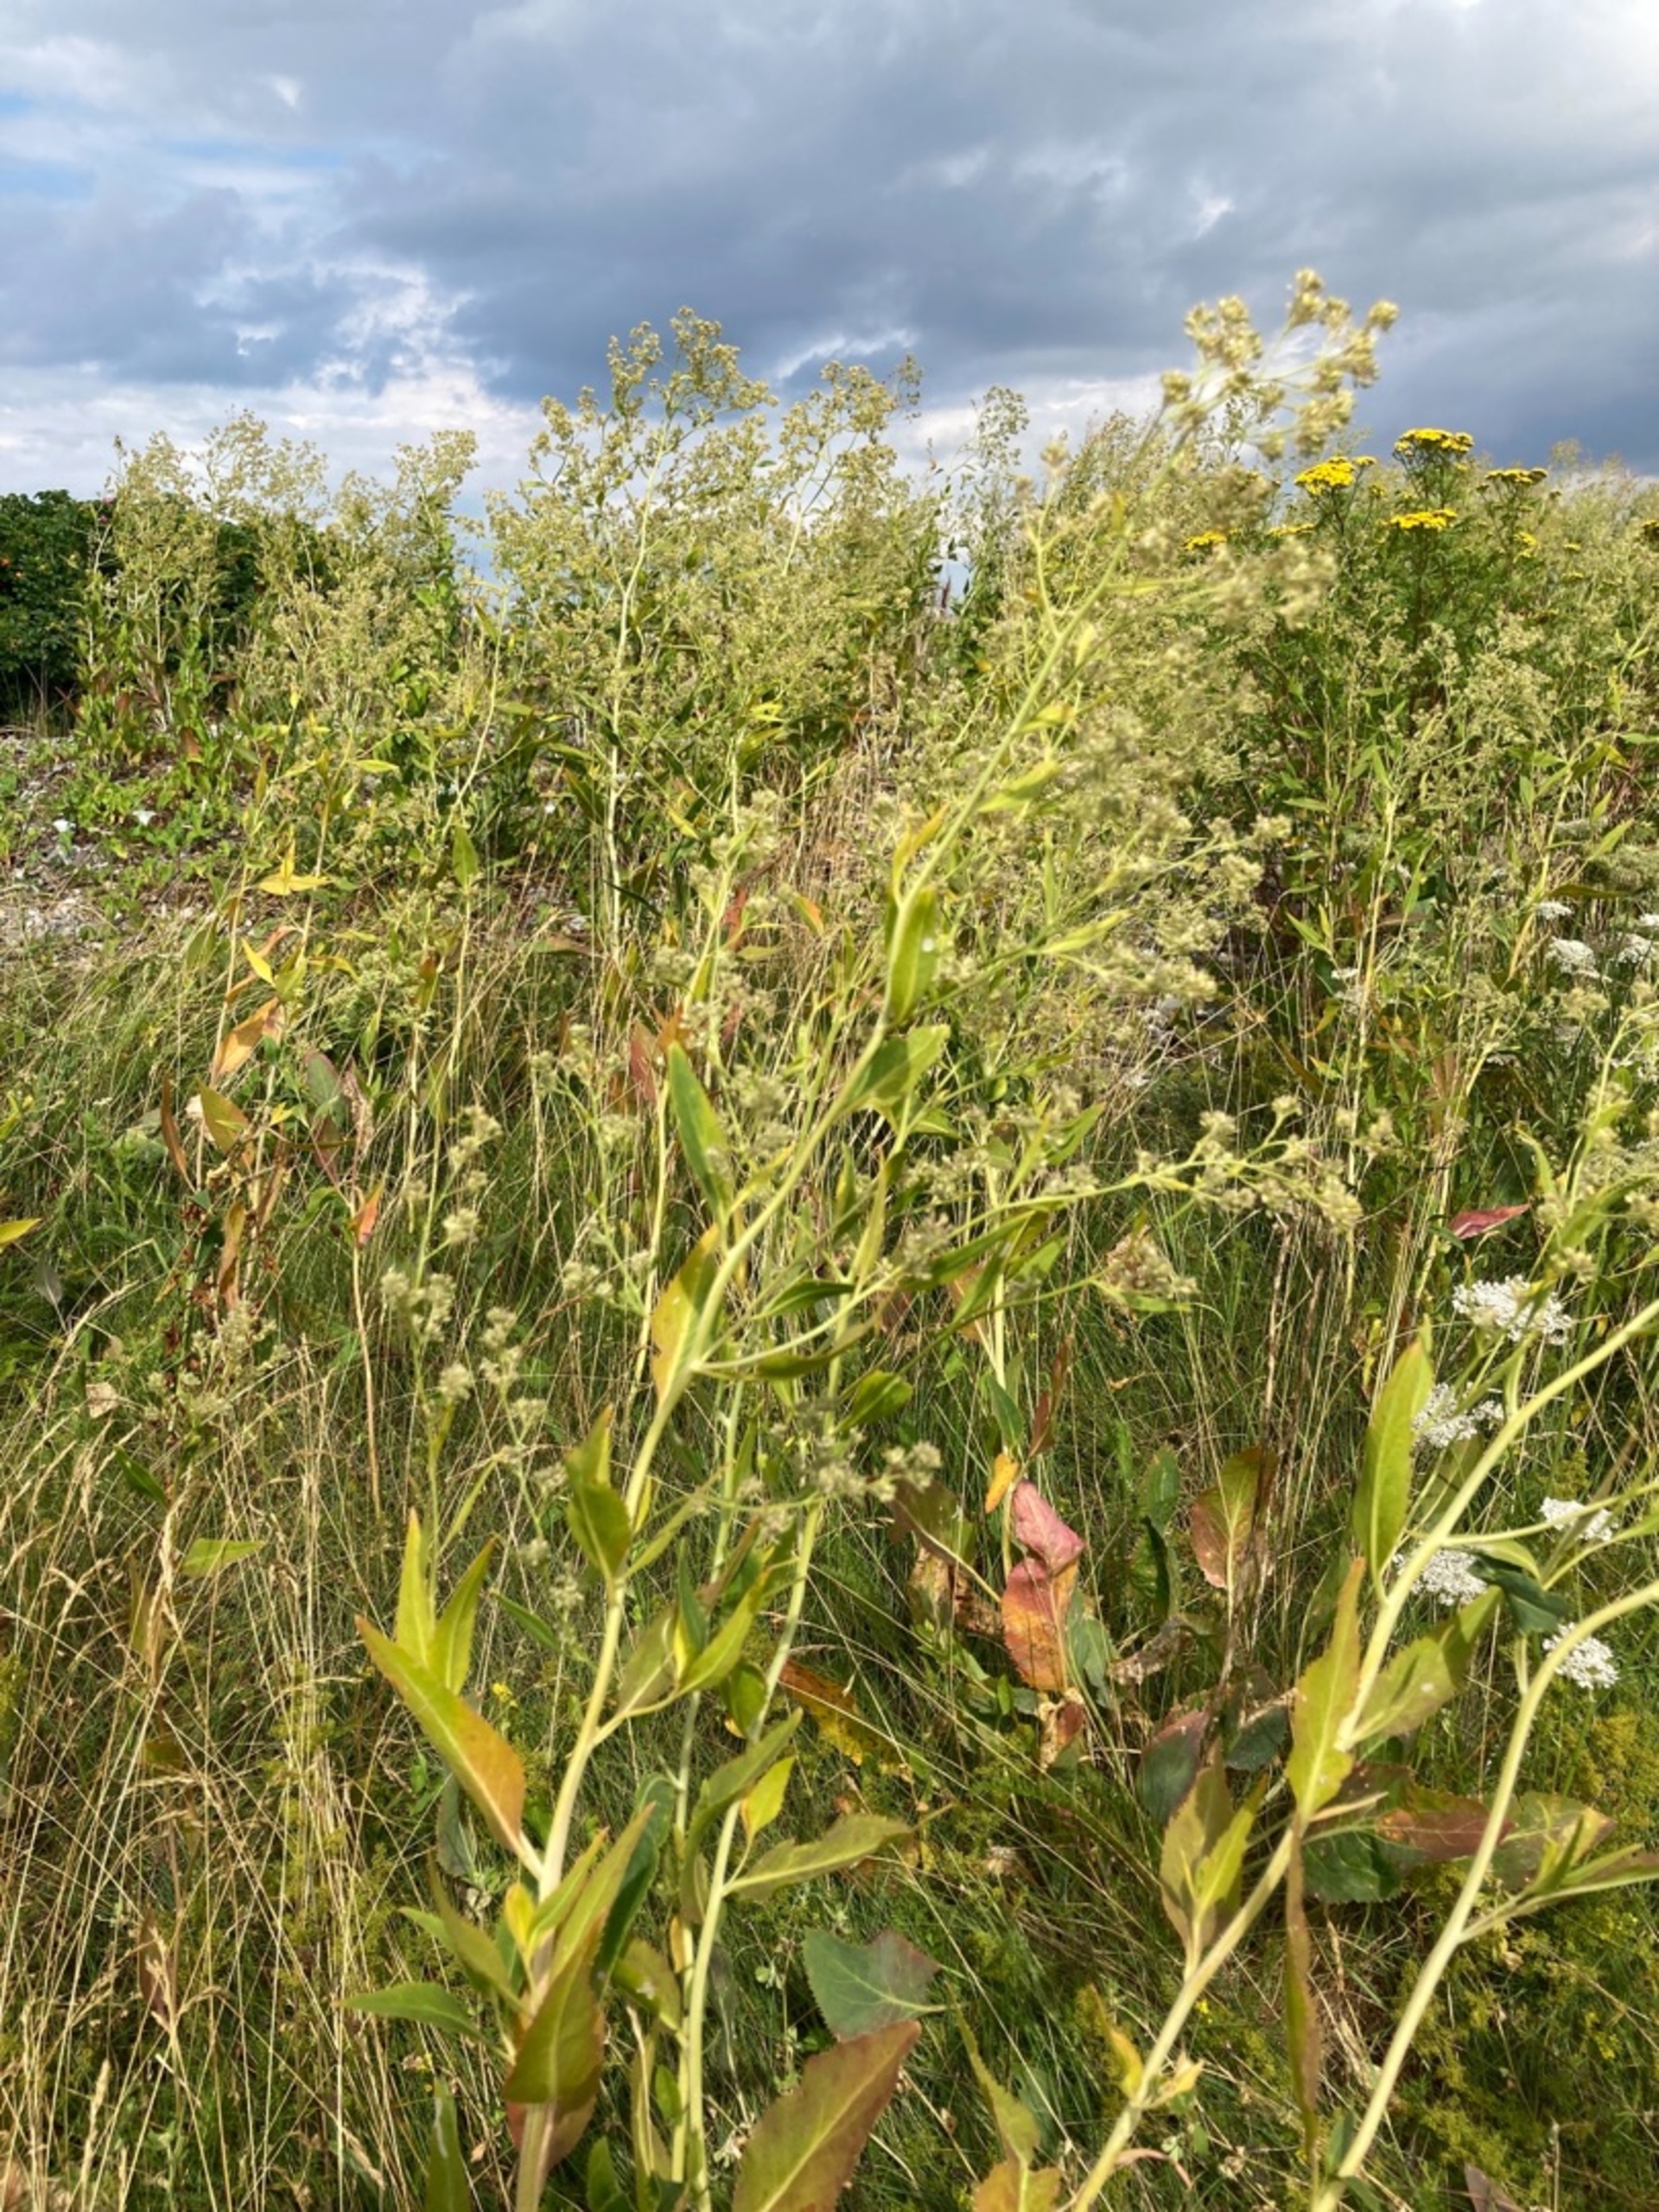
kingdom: Plantae
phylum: Tracheophyta
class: Magnoliopsida
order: Brassicales
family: Brassicaceae
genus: Lepidium
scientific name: Lepidium latifolium
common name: Strand-karse
